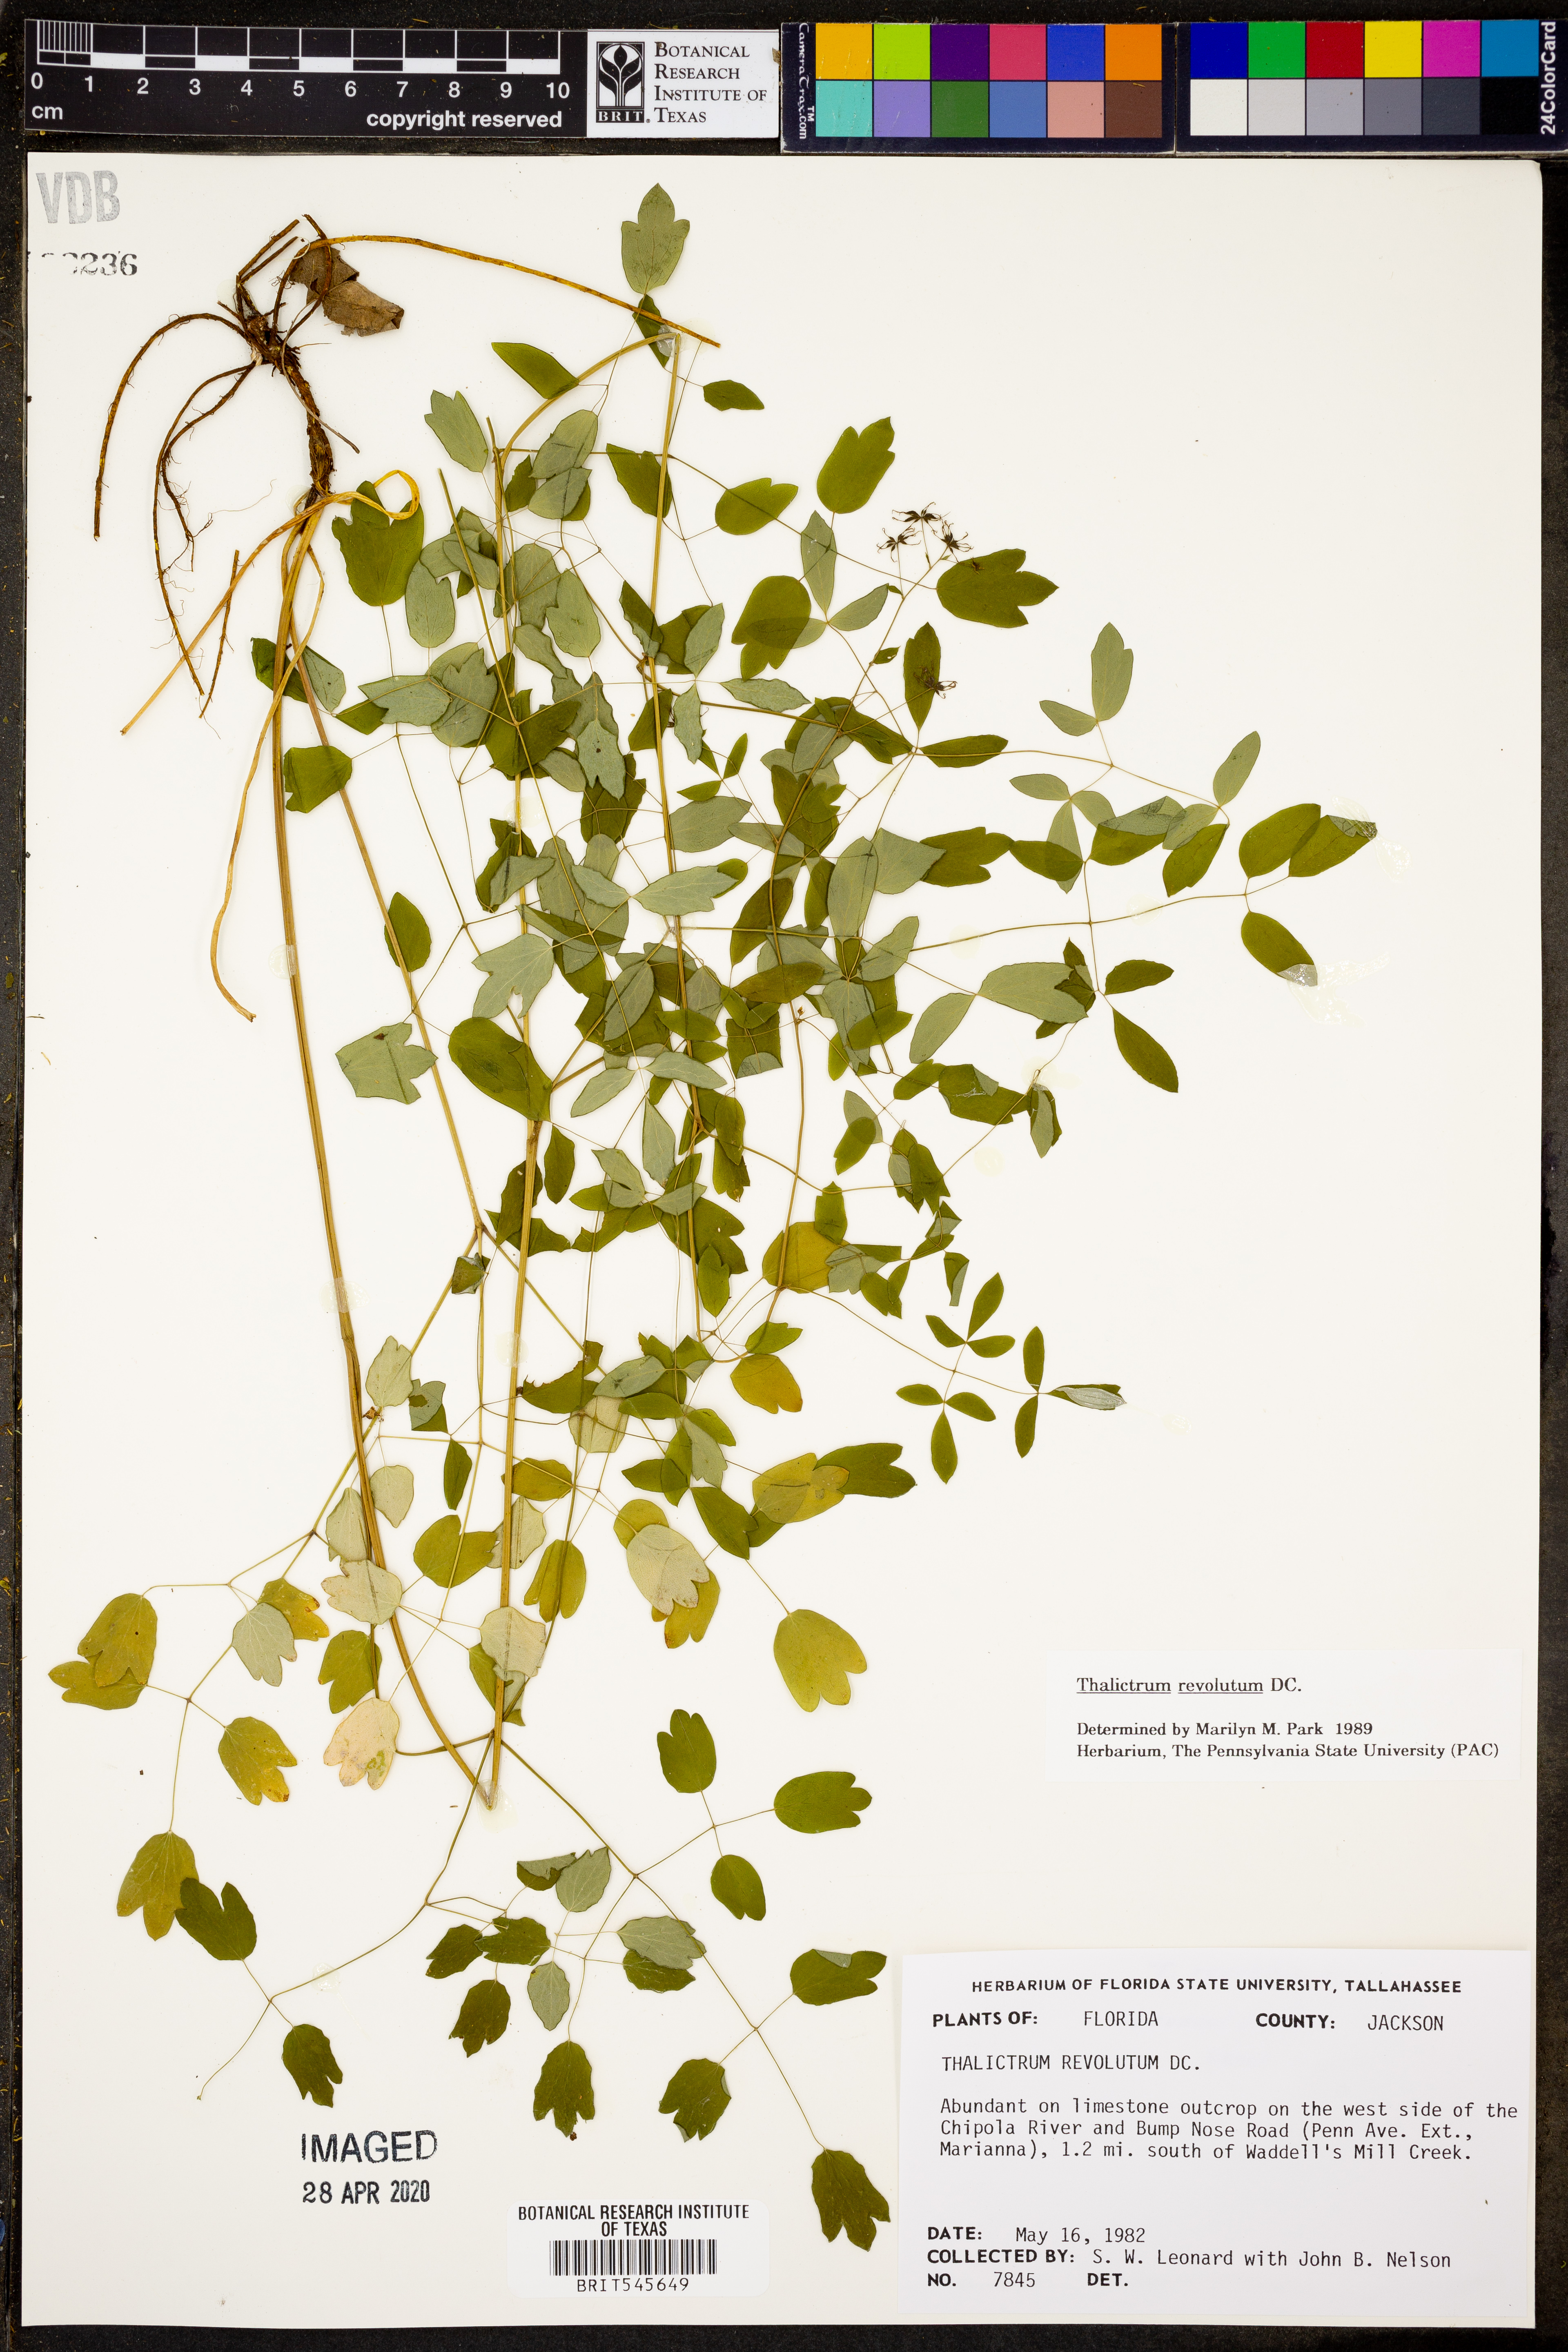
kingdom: Plantae
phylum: Tracheophyta
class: Magnoliopsida
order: Ranunculales
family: Ranunculaceae
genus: Thalictrum
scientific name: Thalictrum revolutum
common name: Waxy meadow-rue
